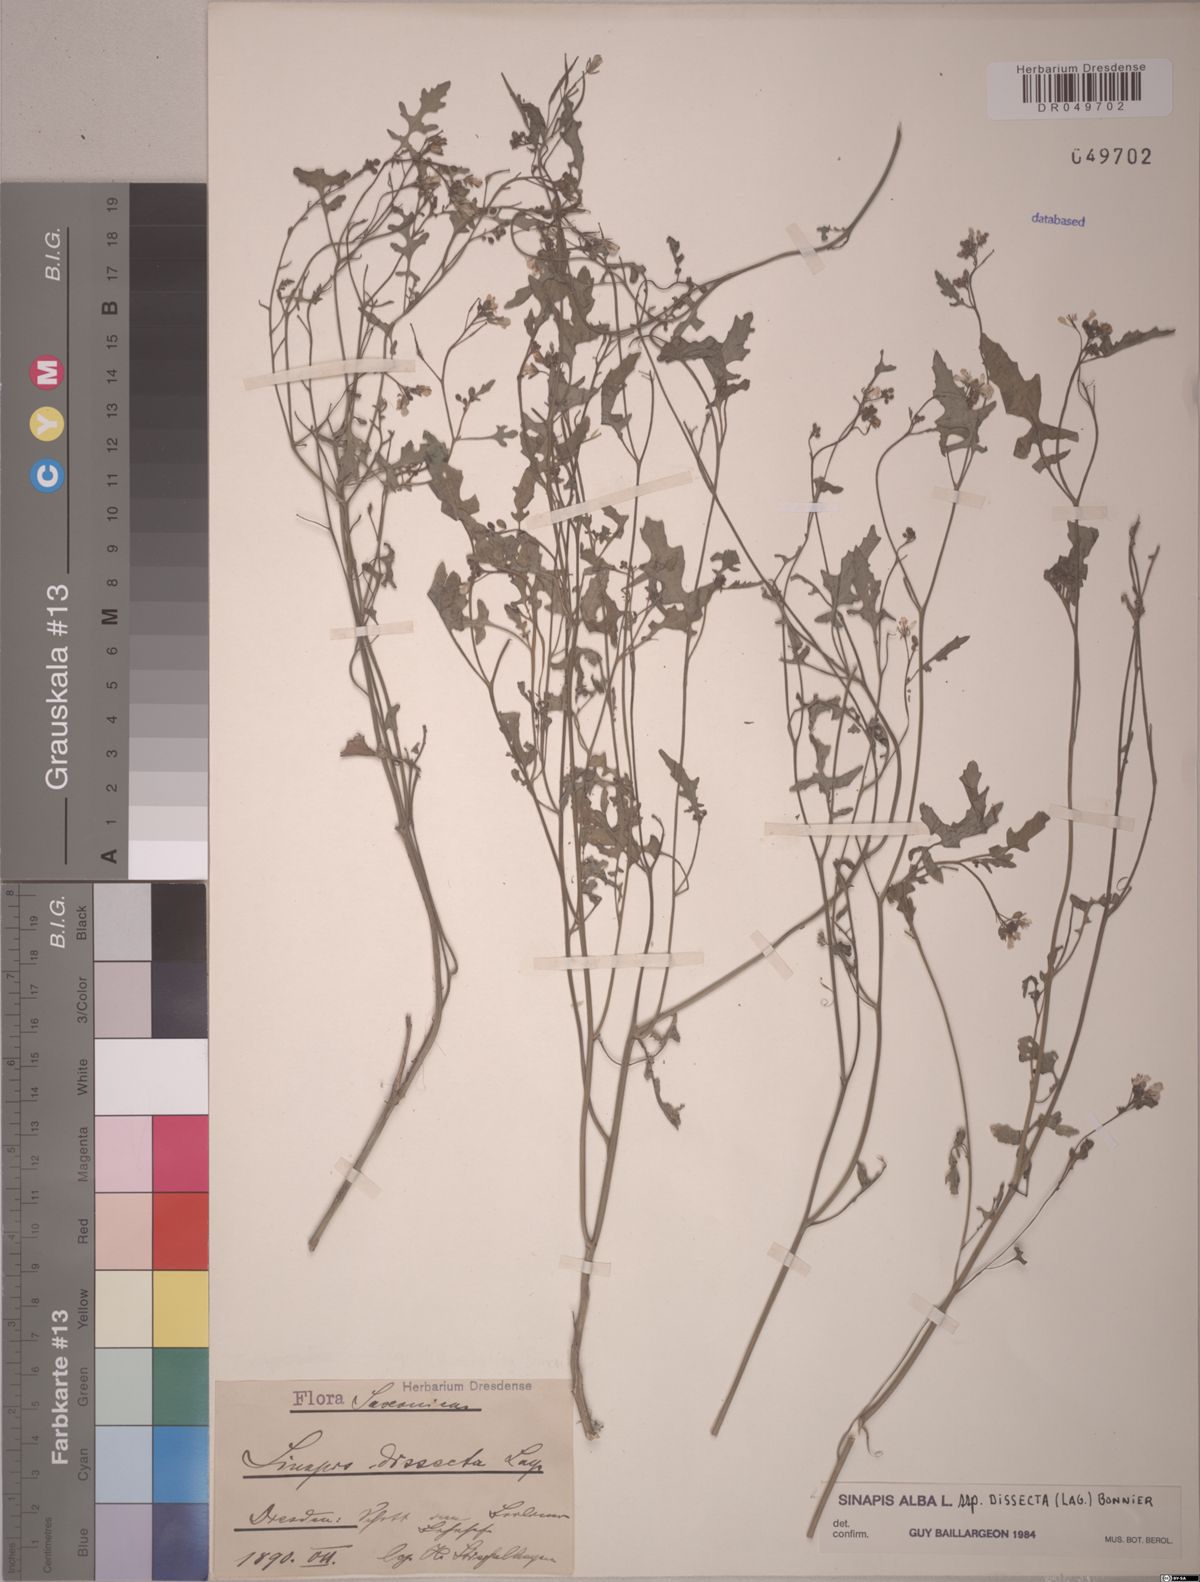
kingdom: Plantae
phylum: Tracheophyta
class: Magnoliopsida
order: Brassicales
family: Brassicaceae
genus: Sinapis
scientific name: Sinapis alba
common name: White mustard
